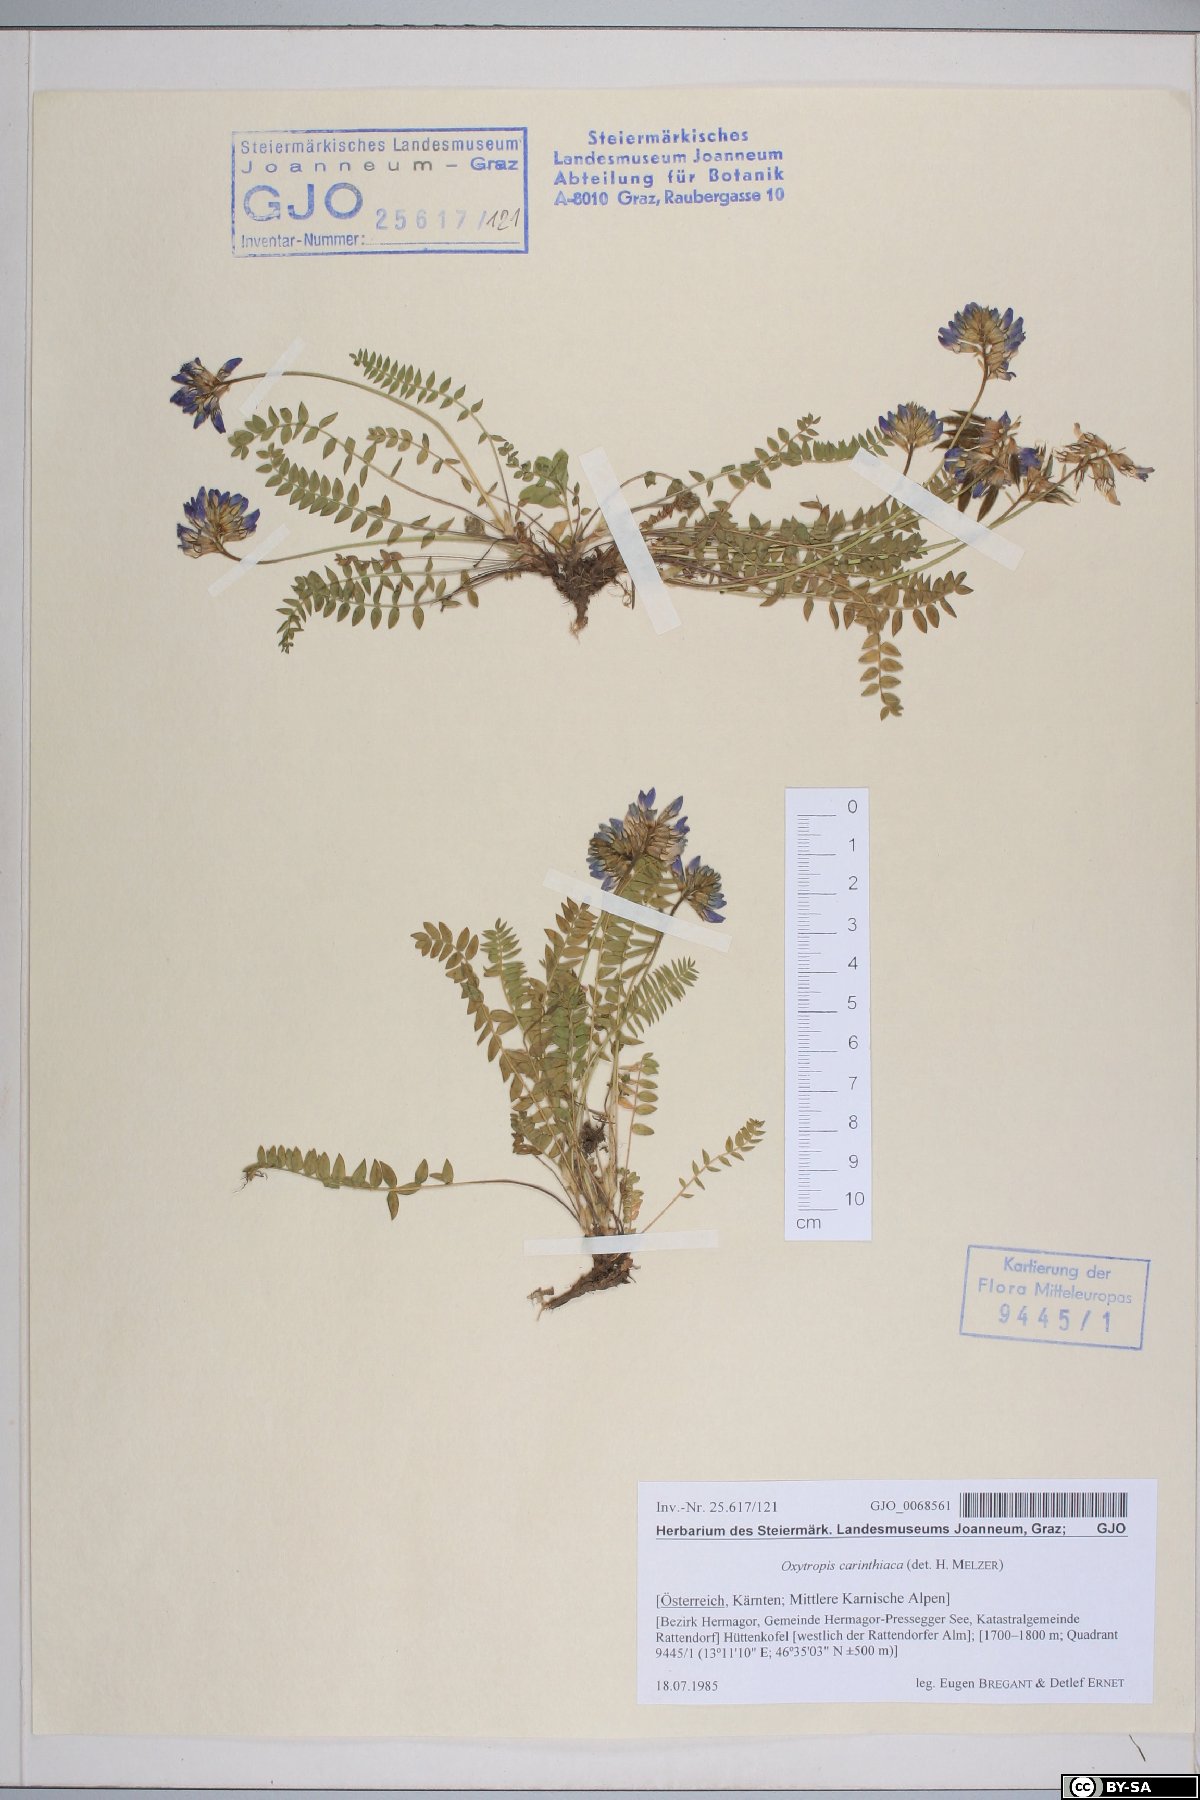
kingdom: Plantae
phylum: Tracheophyta
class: Magnoliopsida
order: Fabales
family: Fabaceae
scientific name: Fabaceae
